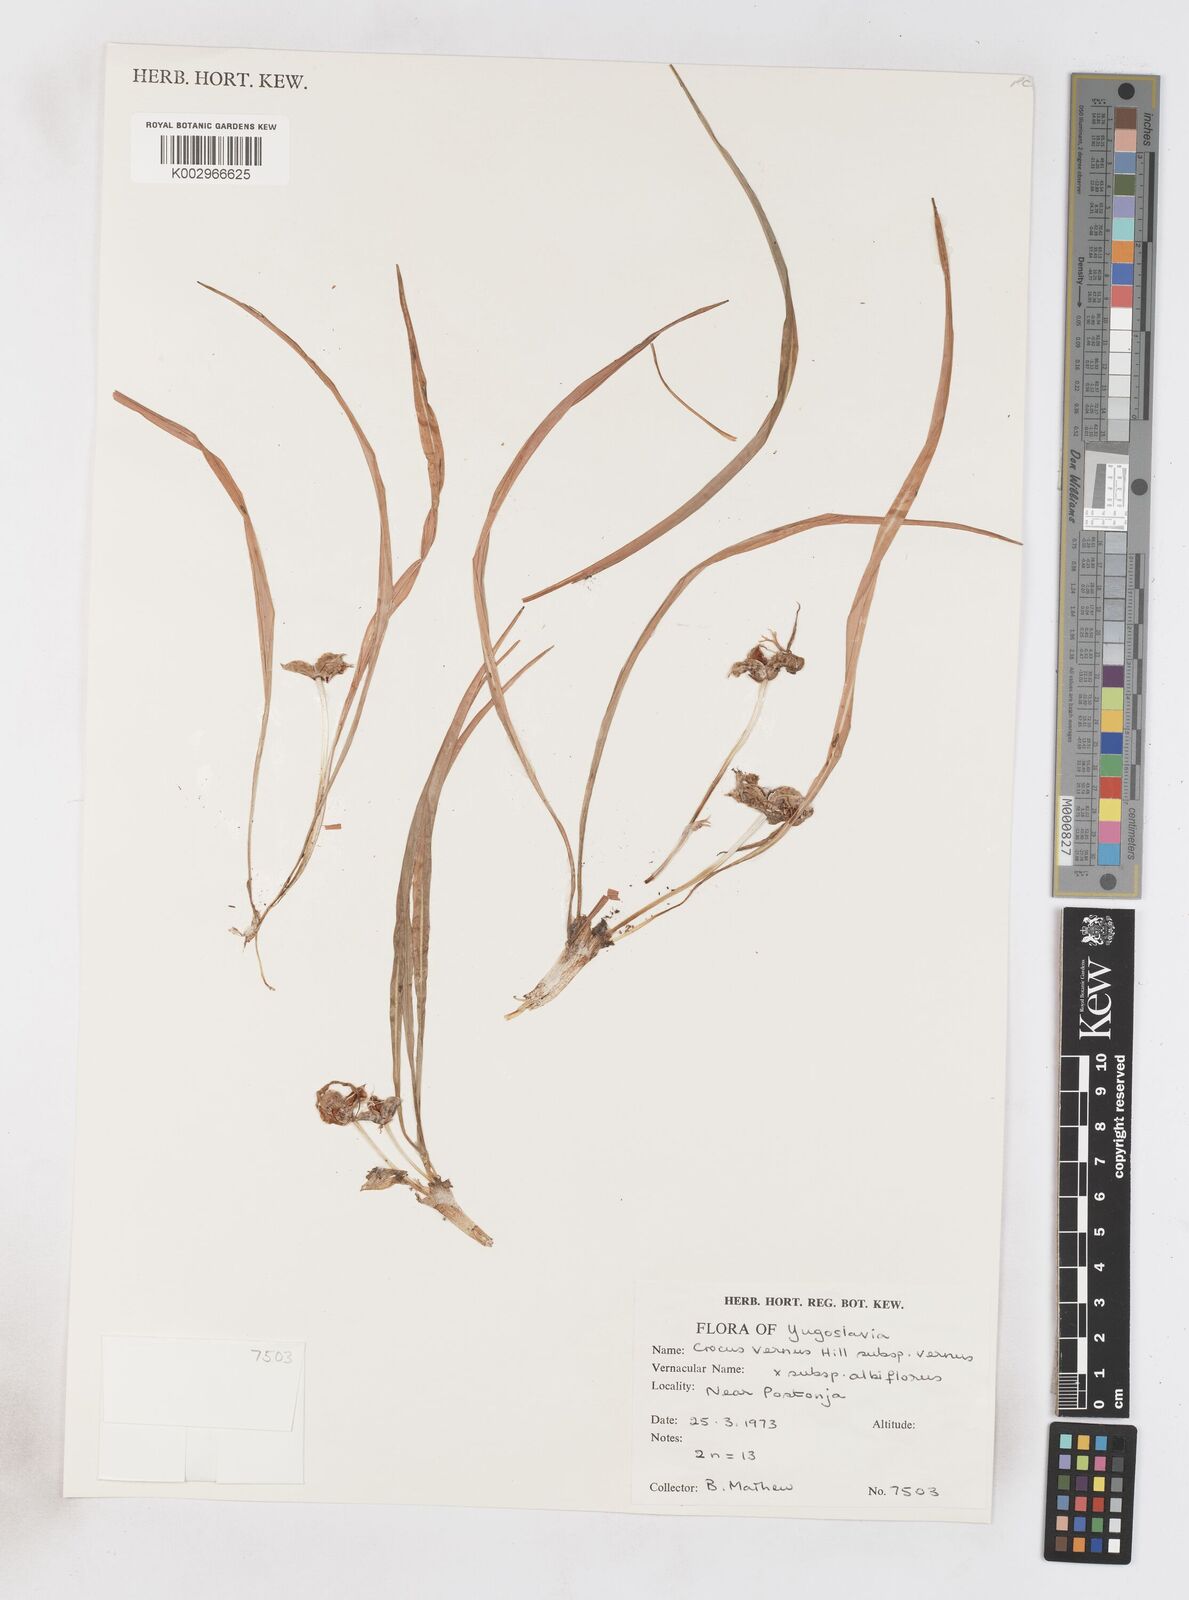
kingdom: Plantae
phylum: Tracheophyta
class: Liliopsida
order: Asparagales
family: Iridaceae
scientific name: Iridaceae
